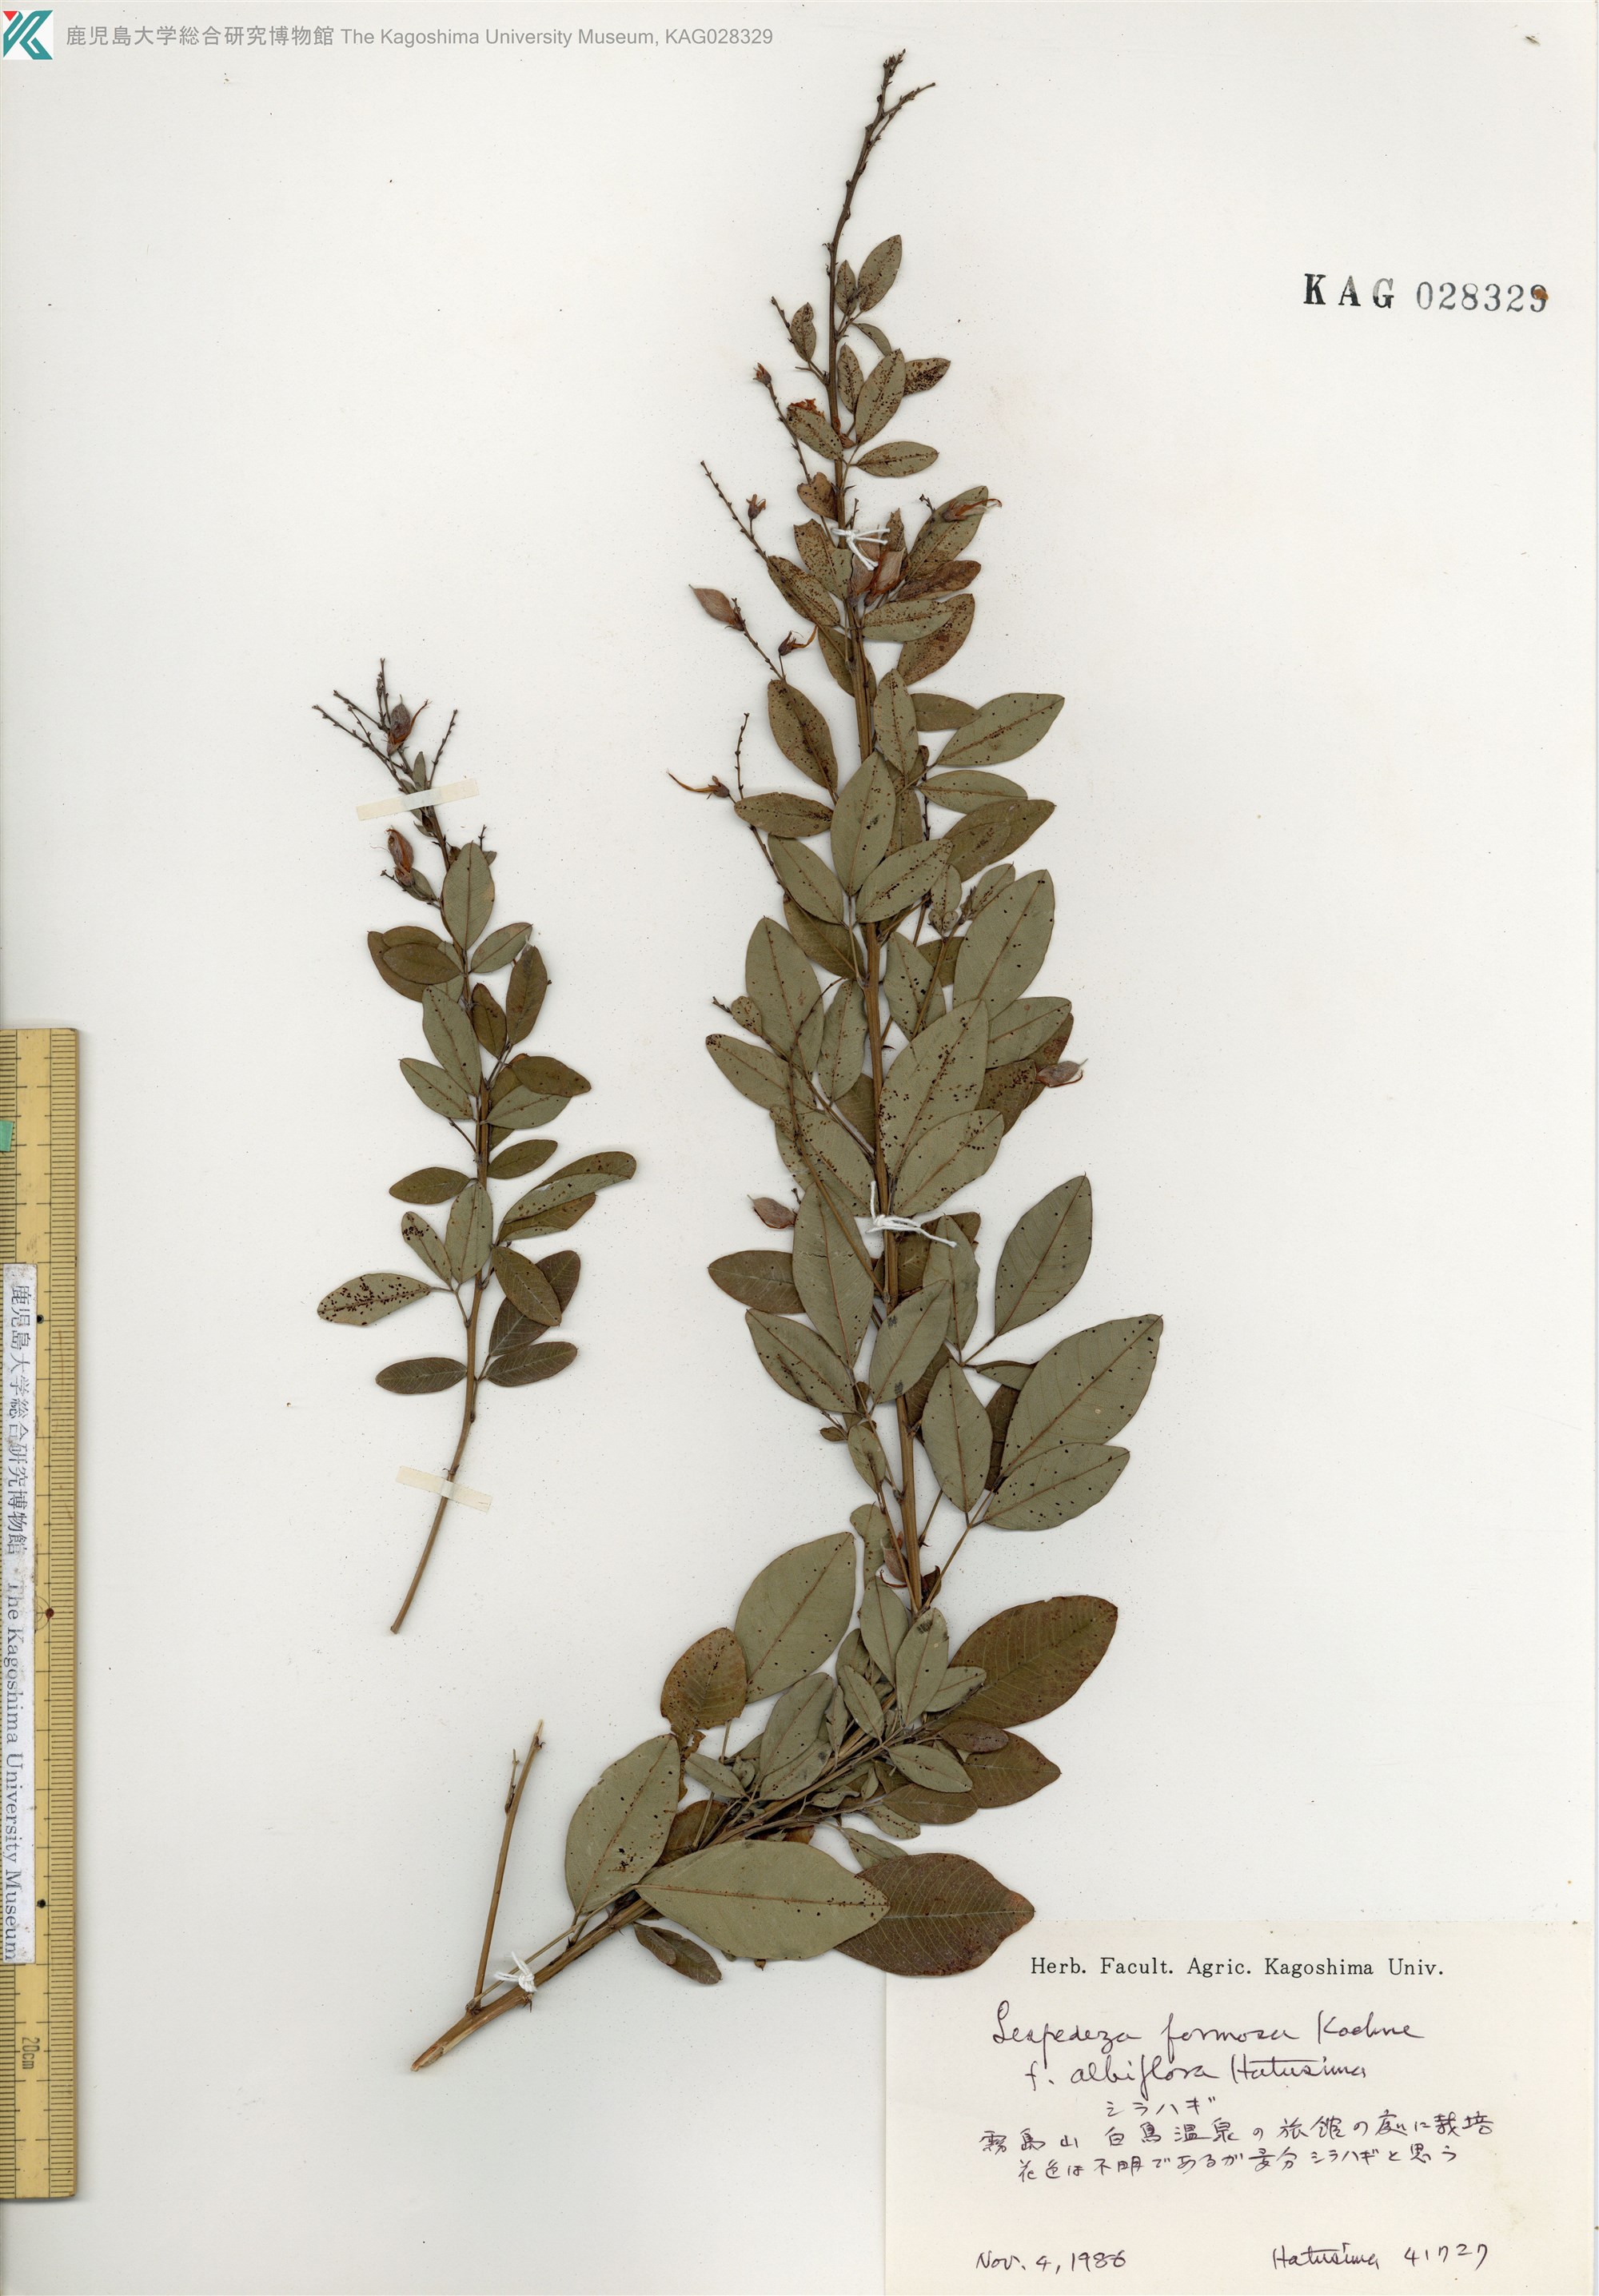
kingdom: Plantae
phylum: Tracheophyta
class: Magnoliopsida
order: Fabales
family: Fabaceae
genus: Lespedeza
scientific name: Lespedeza thunbergii
